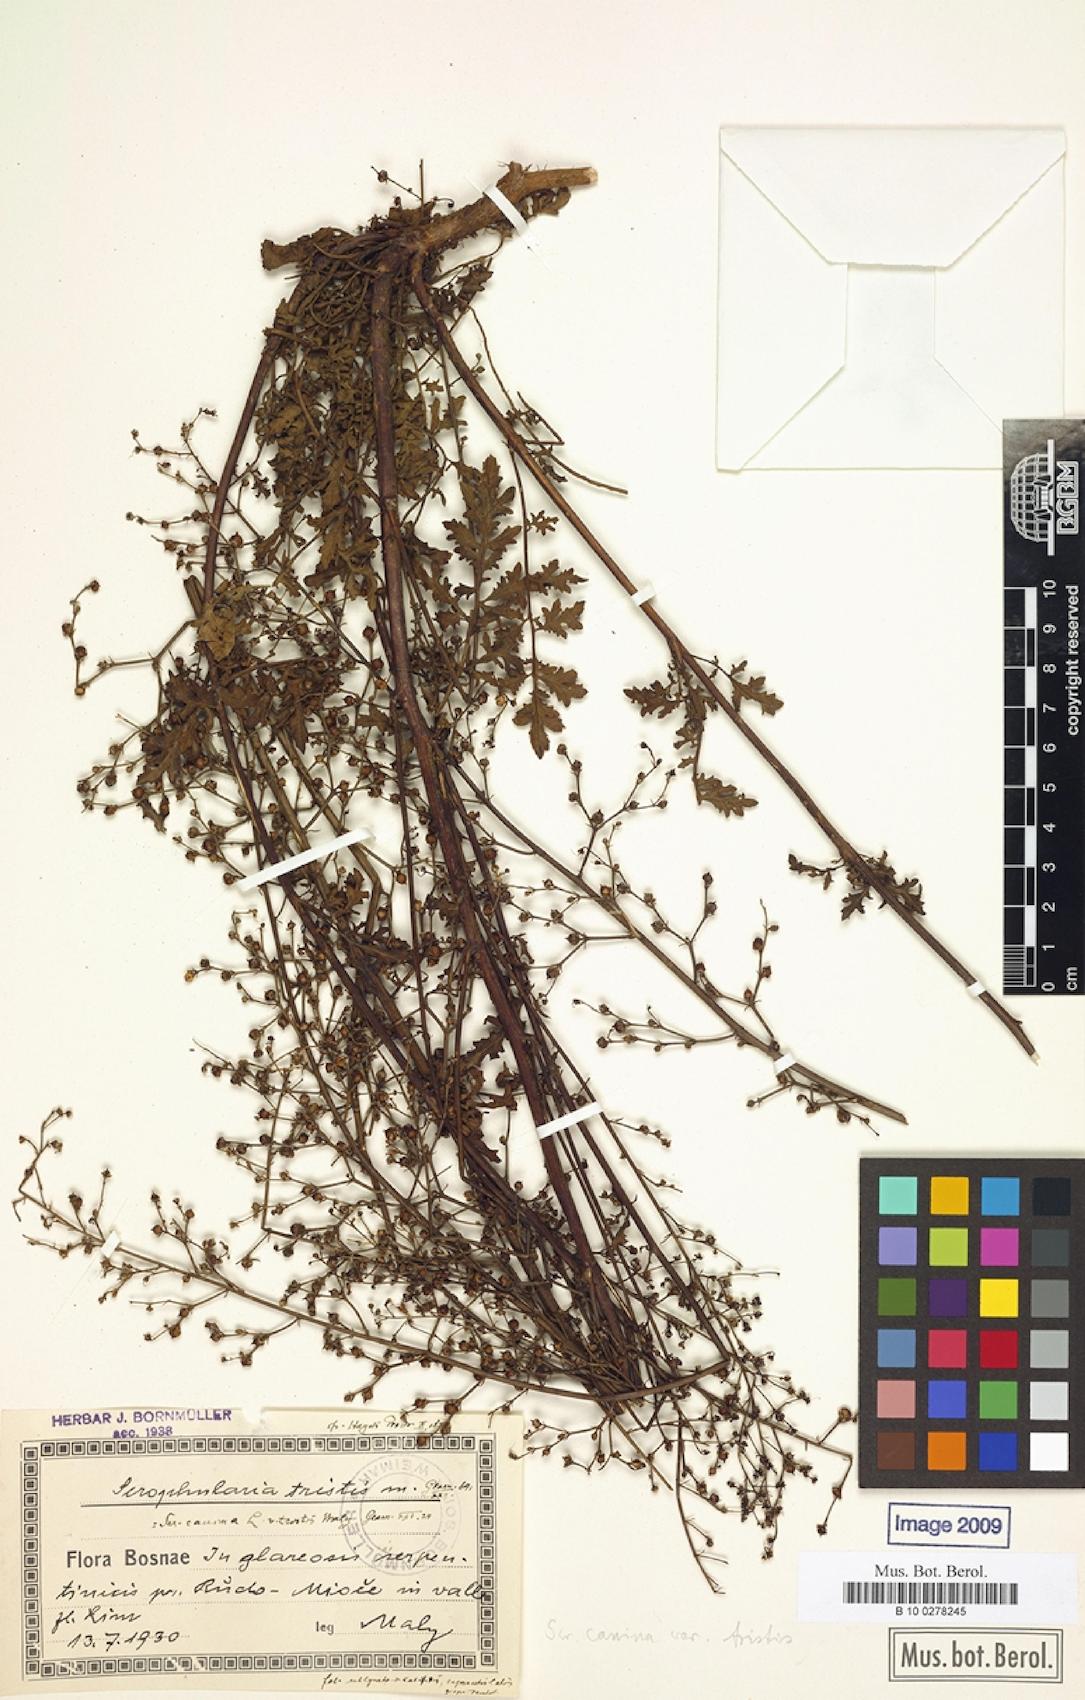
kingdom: Plantae
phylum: Tracheophyta
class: Magnoliopsida
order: Lamiales
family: Scrophulariaceae
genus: Scrophularia
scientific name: Scrophularia canina
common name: French figwort
